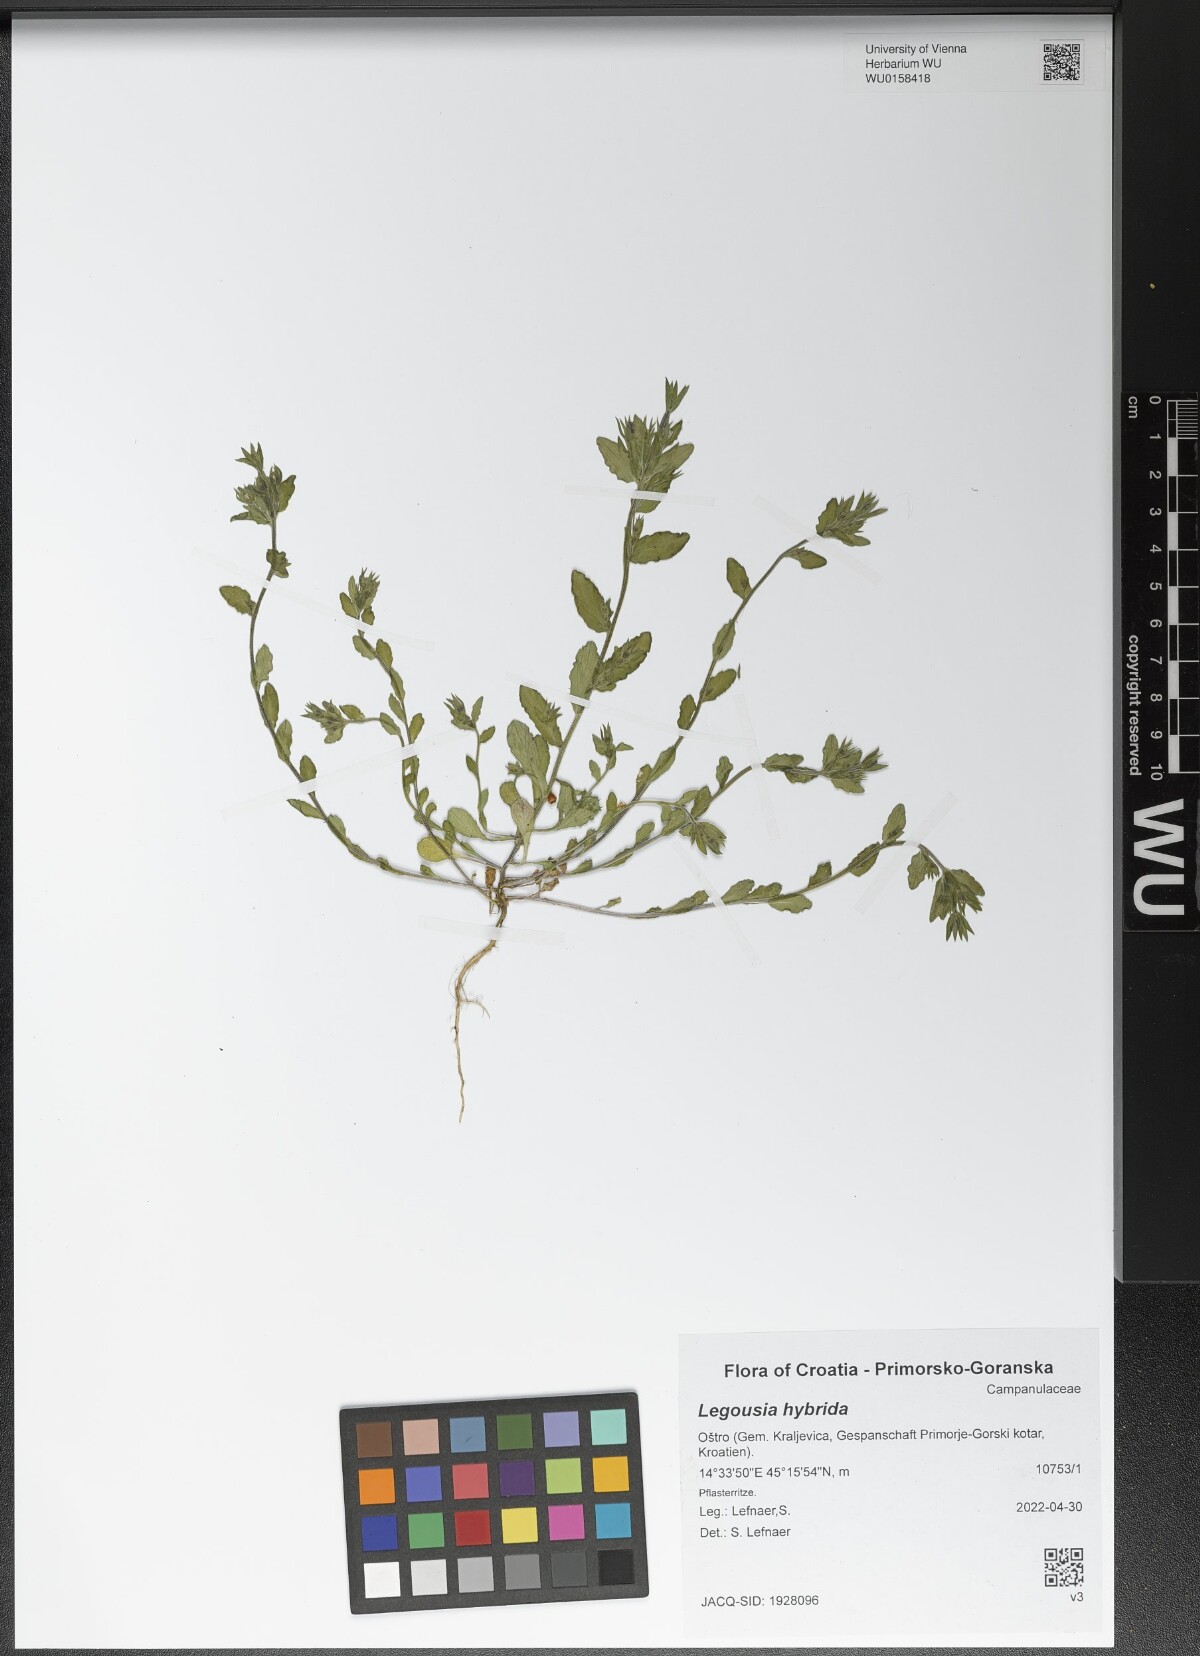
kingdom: Plantae
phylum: Tracheophyta
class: Magnoliopsida
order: Asterales
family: Campanulaceae
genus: Legousia
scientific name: Legousia hybrida
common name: Venus's-looking-glass
